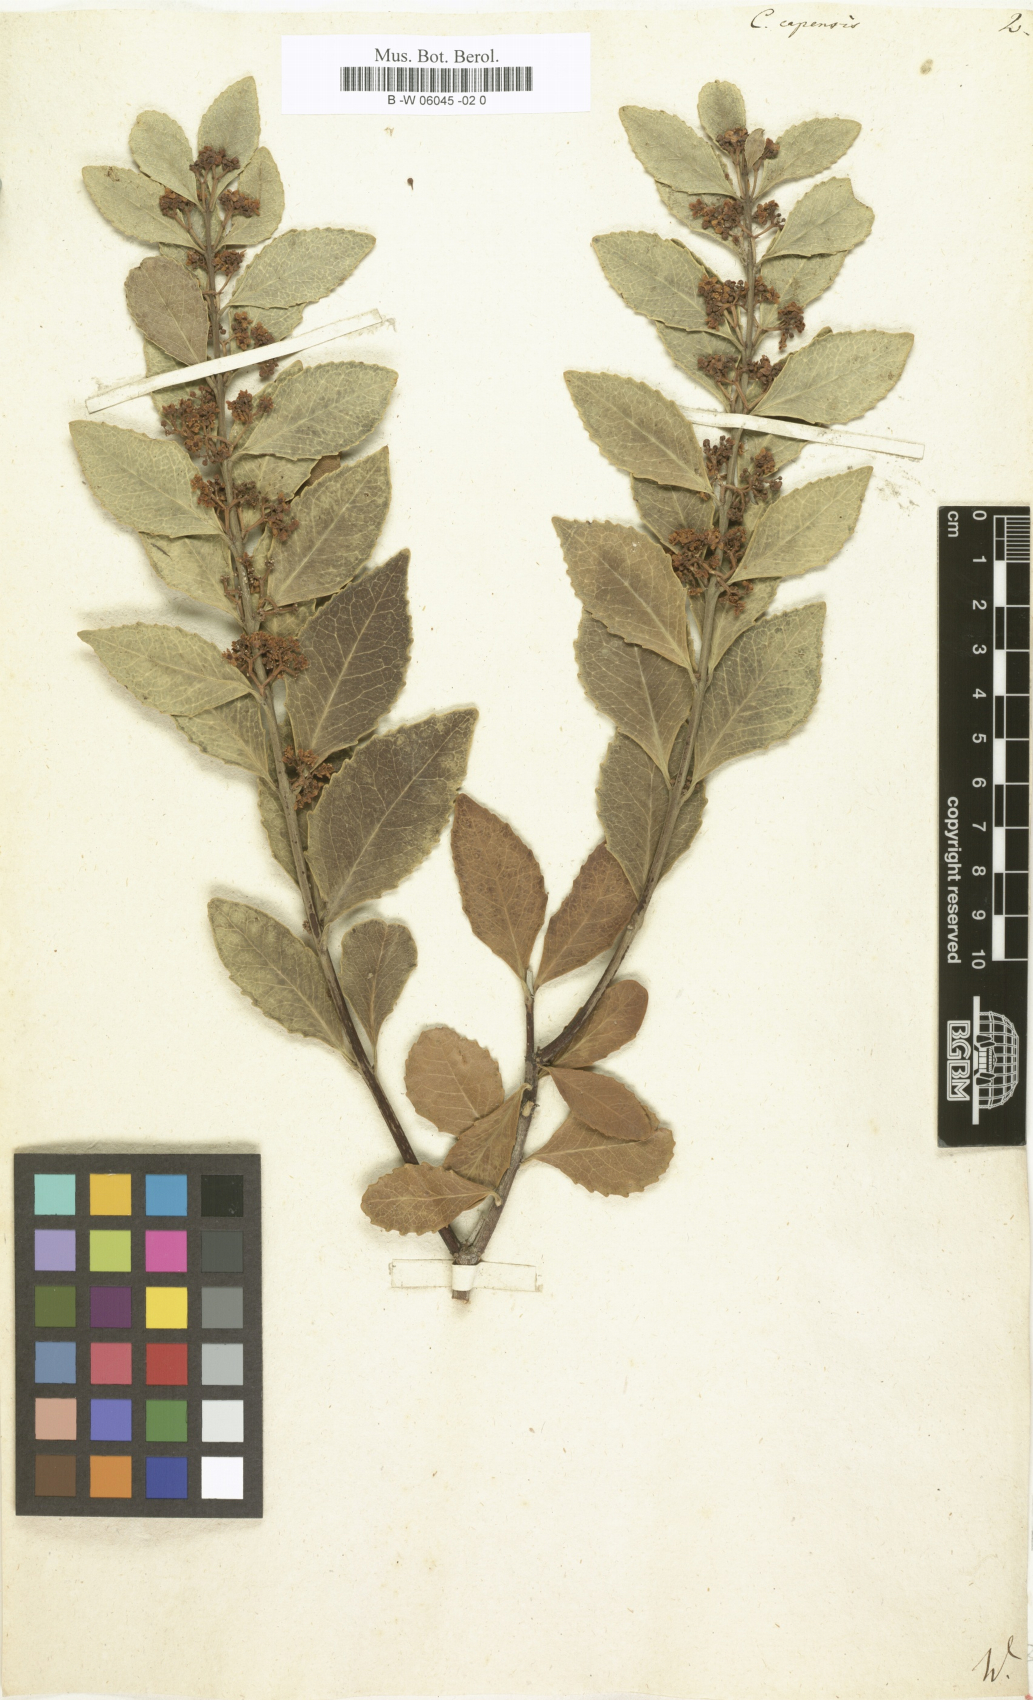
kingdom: Plantae
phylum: Tracheophyta
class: Magnoliopsida
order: Celastrales
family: Celastraceae
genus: Cassine
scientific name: Cassine peragua
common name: Cape saffron
